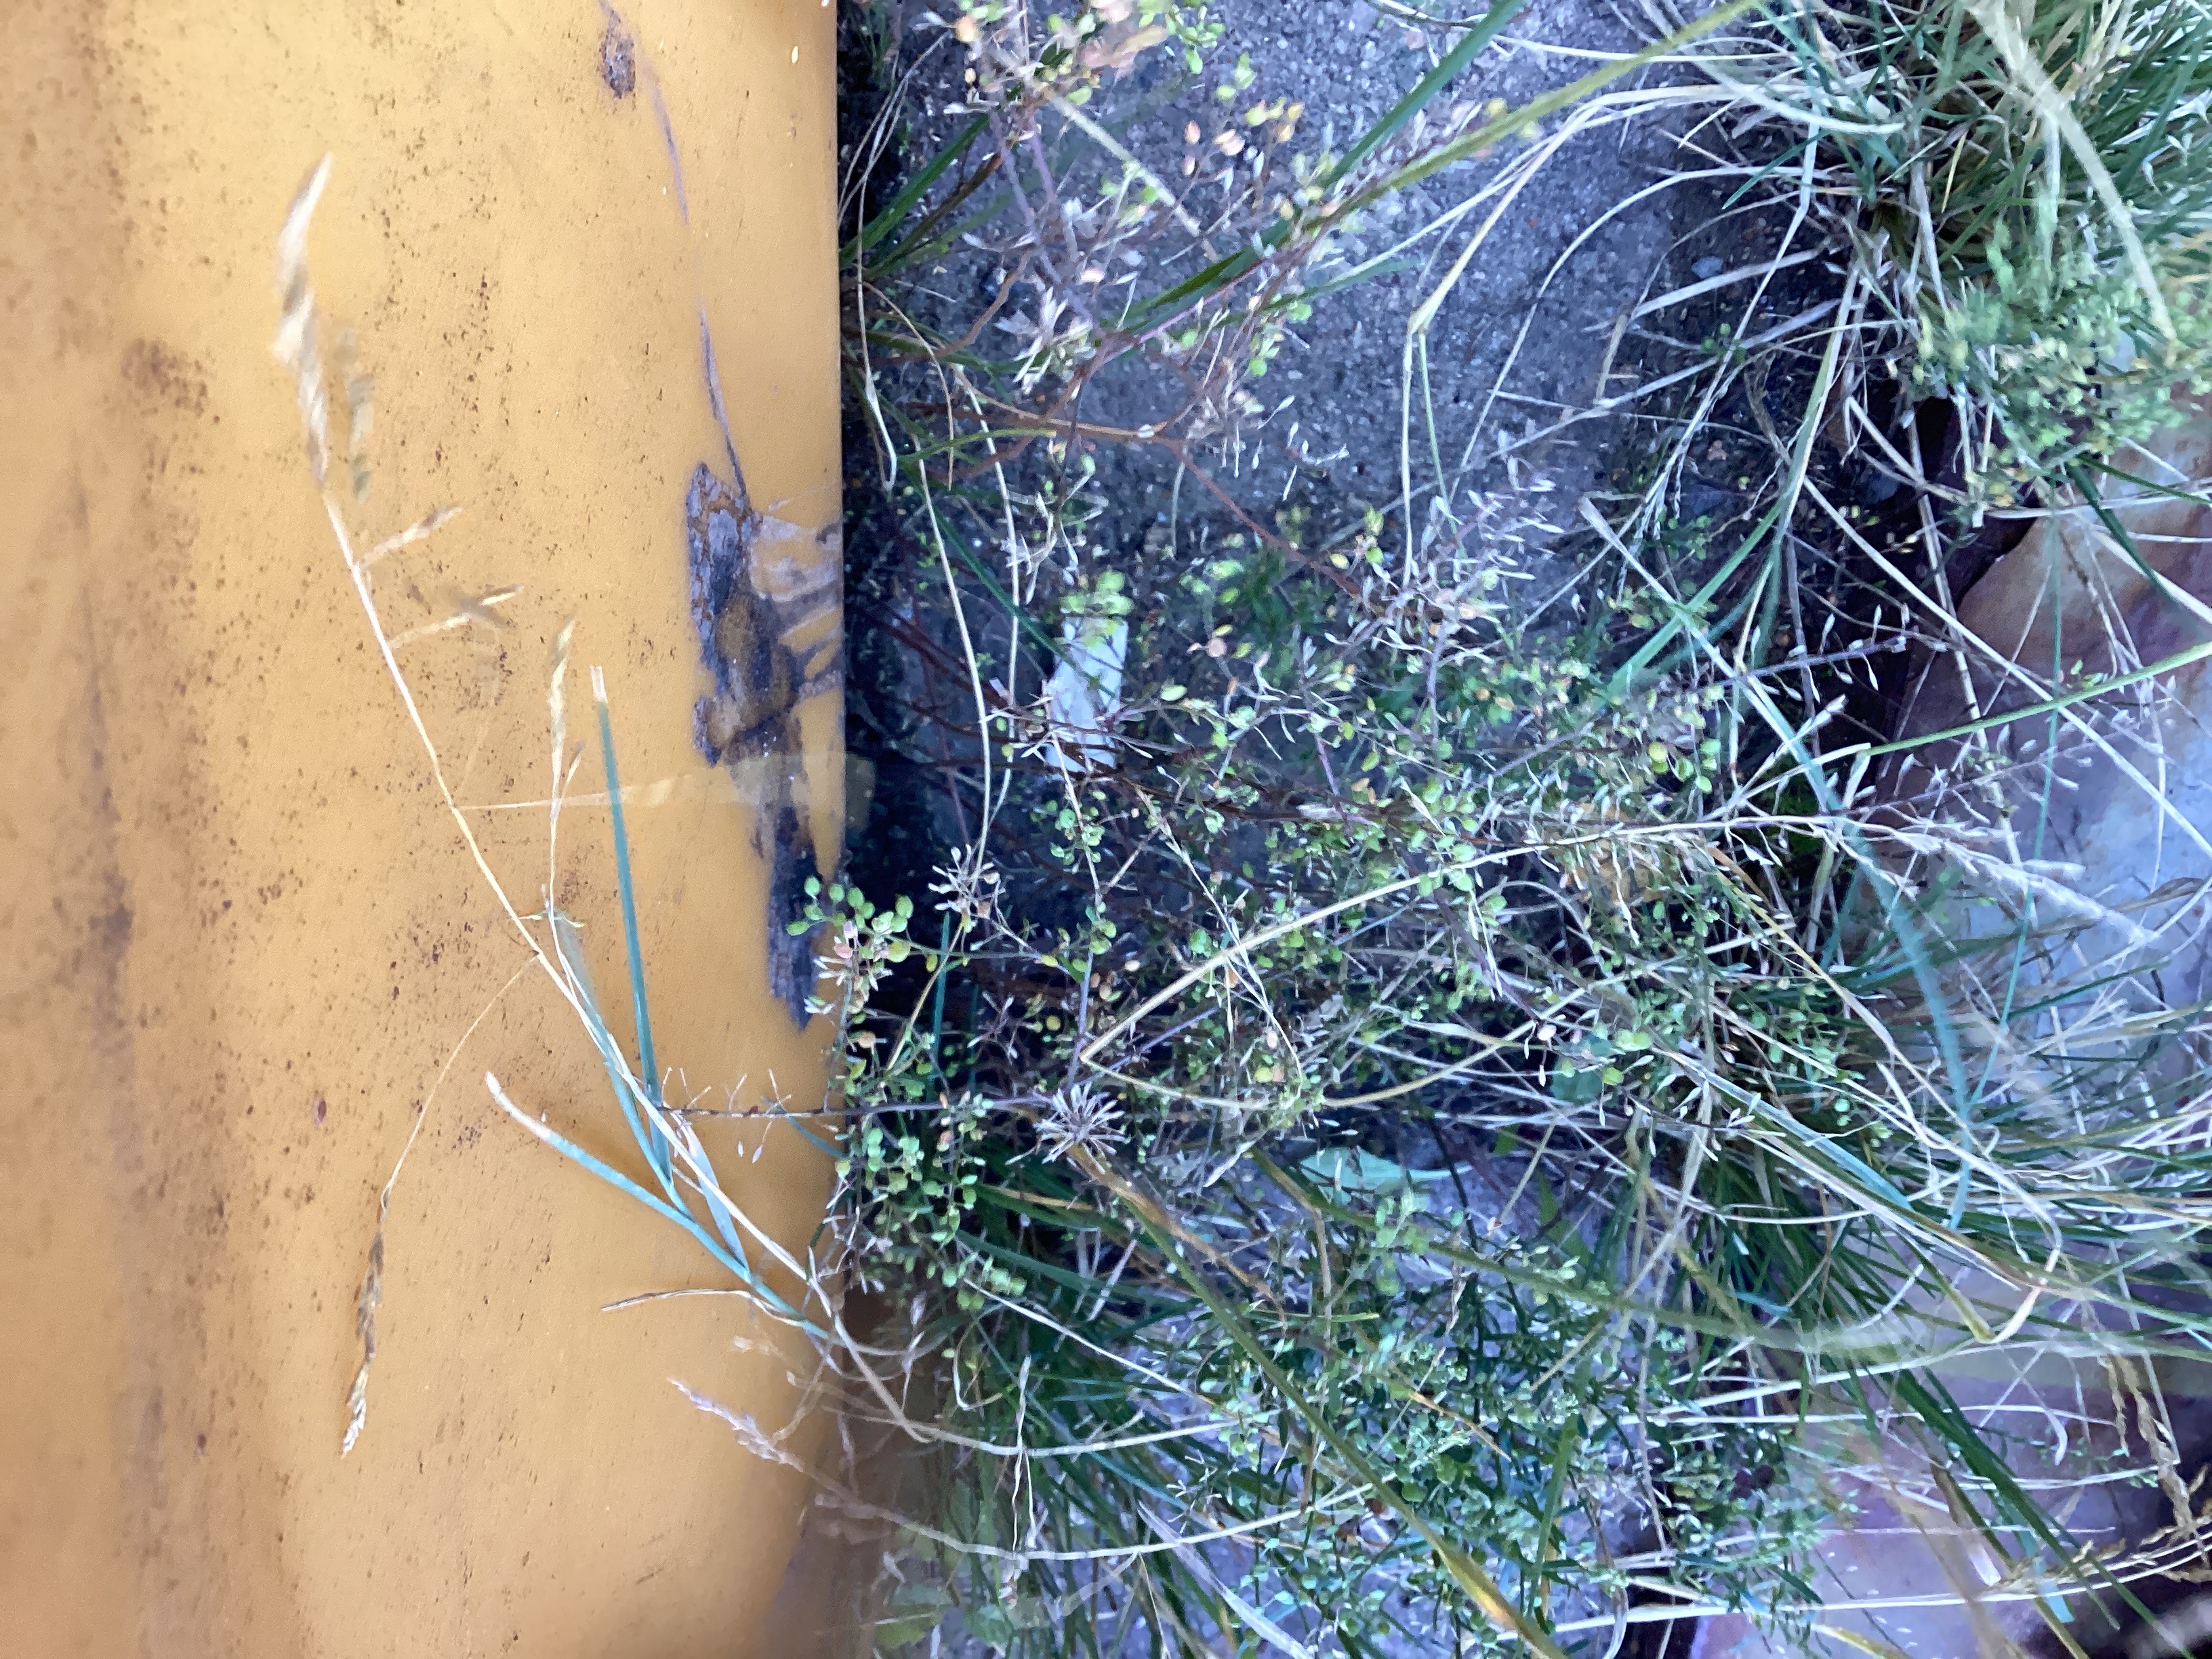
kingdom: Plantae
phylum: Tracheophyta
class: Magnoliopsida
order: Brassicales
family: Brassicaceae
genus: Lepidium
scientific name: Lepidium ruderale
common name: gáhttakrássa
